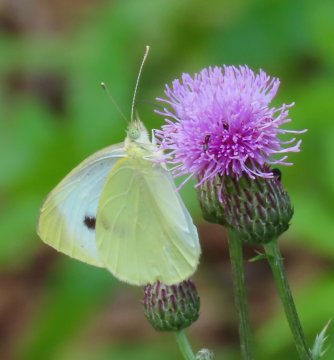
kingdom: Animalia
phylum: Arthropoda
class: Insecta
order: Lepidoptera
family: Pieridae
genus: Pieris
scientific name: Pieris rapae
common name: Cabbage White
